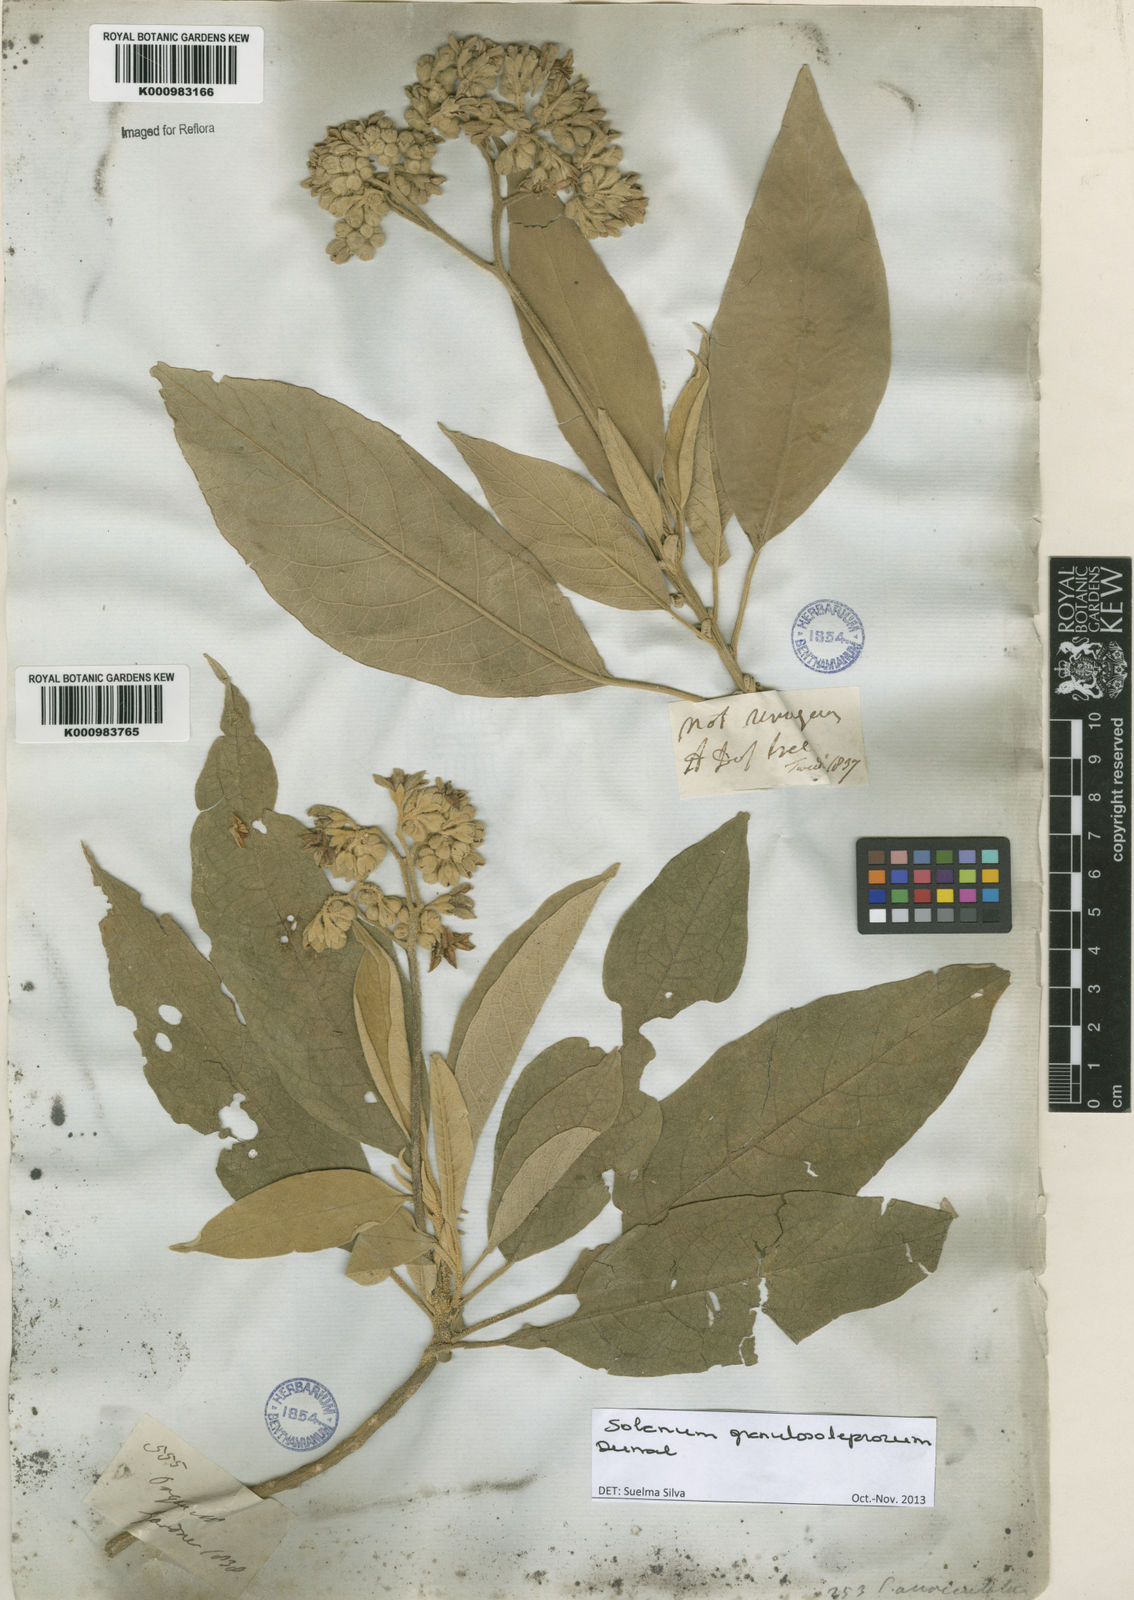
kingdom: Plantae
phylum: Tracheophyta
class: Magnoliopsida
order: Solanales
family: Solanaceae
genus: Solanum
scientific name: Solanum granulosoleprosum
